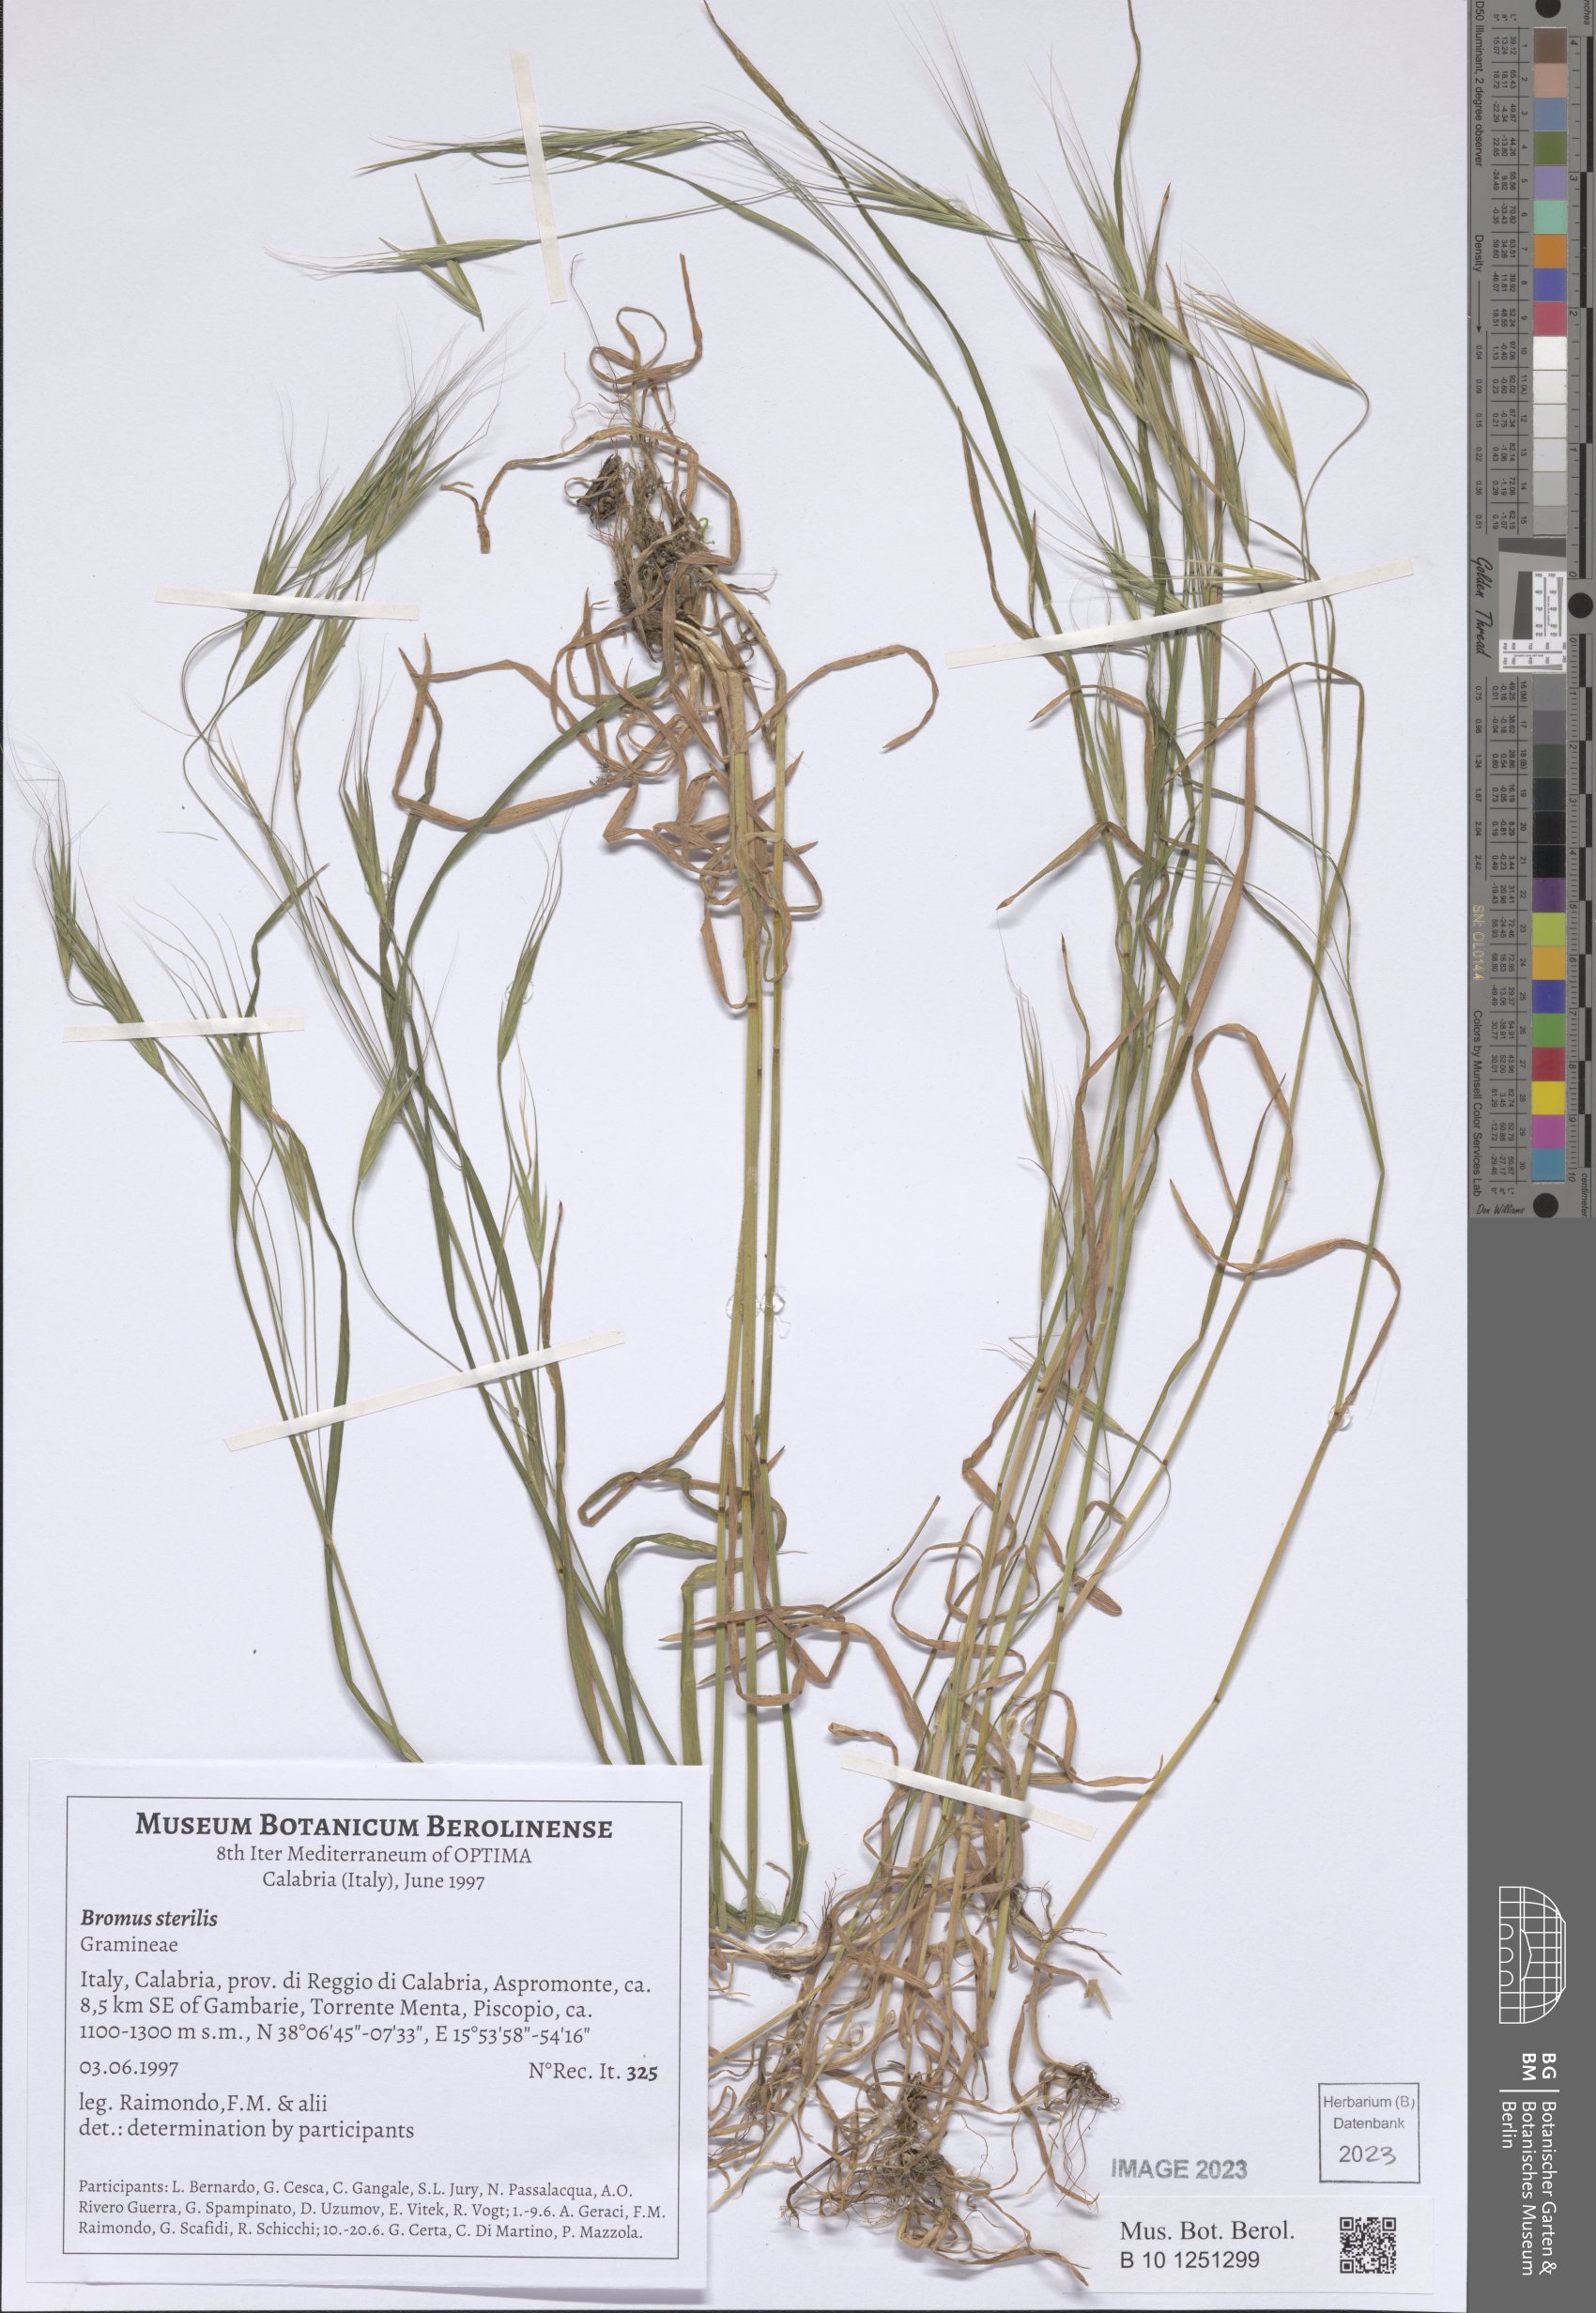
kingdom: Plantae
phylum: Tracheophyta
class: Liliopsida
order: Poales
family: Poaceae
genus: Bromus
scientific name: Bromus sterilis
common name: Poverty brome
